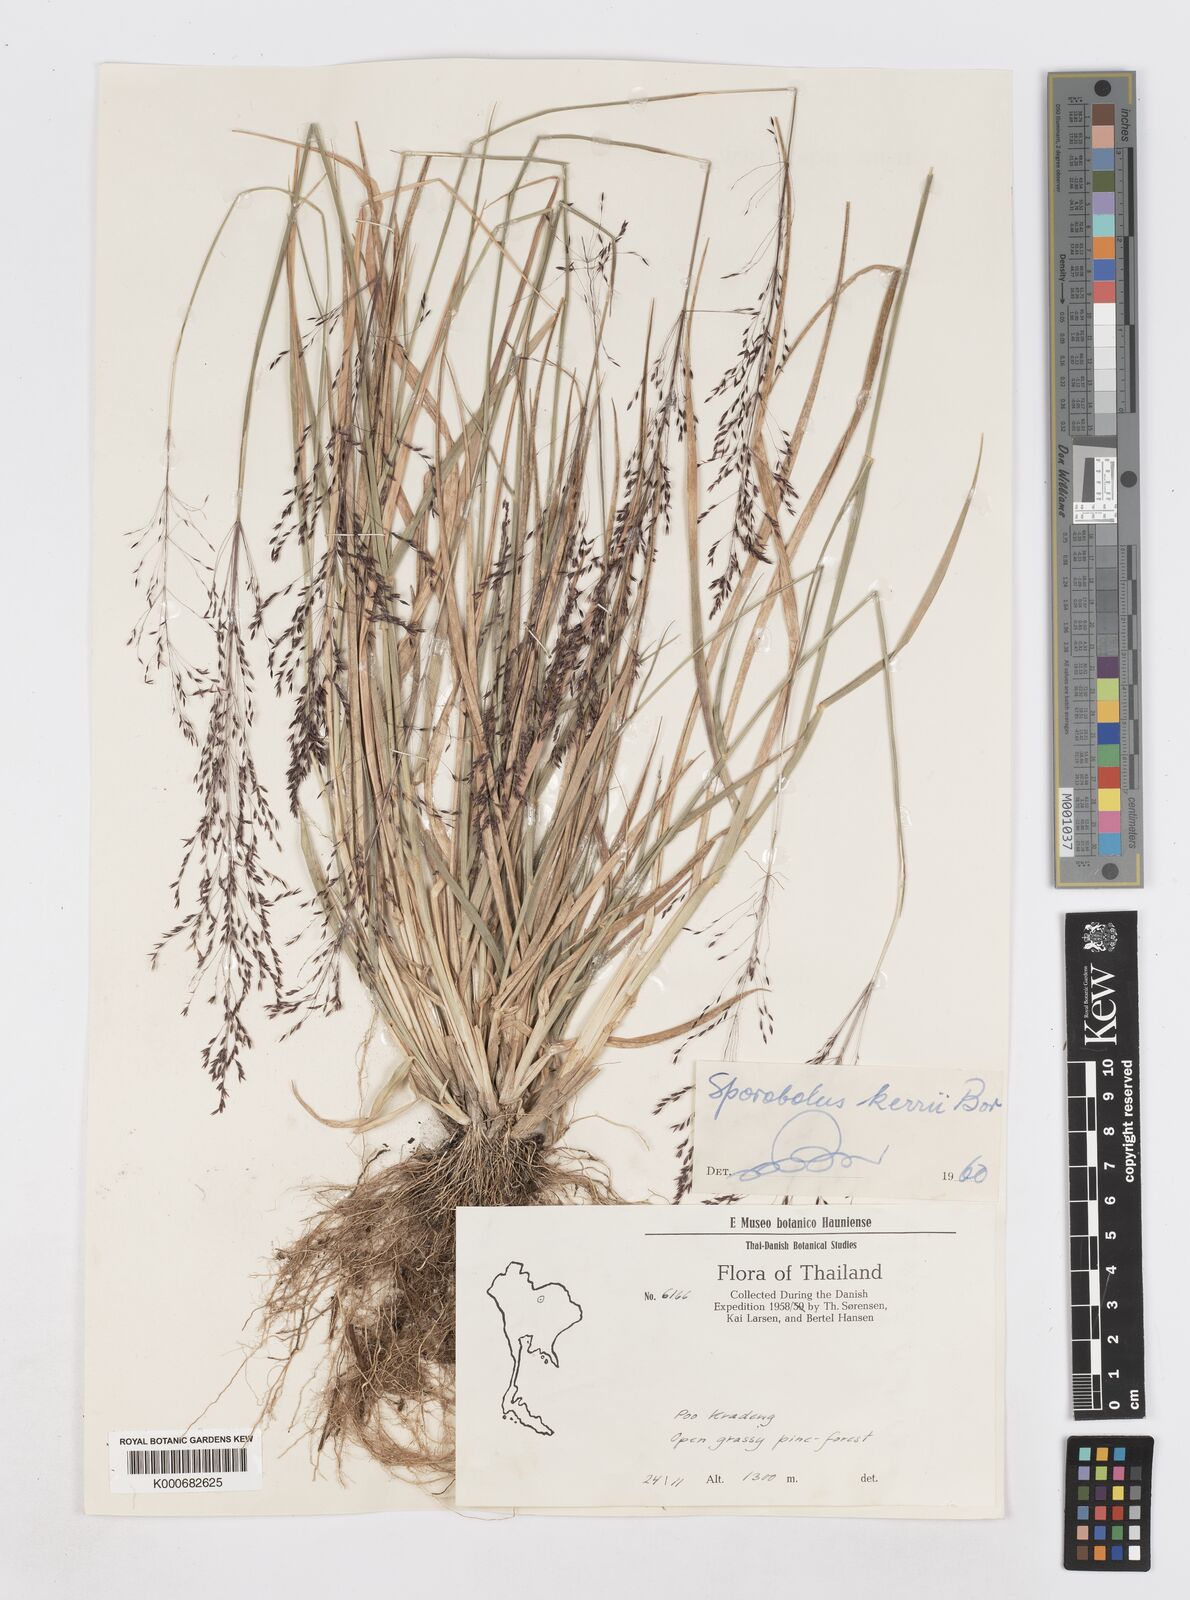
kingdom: Plantae
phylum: Tracheophyta
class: Liliopsida
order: Poales
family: Poaceae
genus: Sporobolus
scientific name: Sporobolus kerrii
